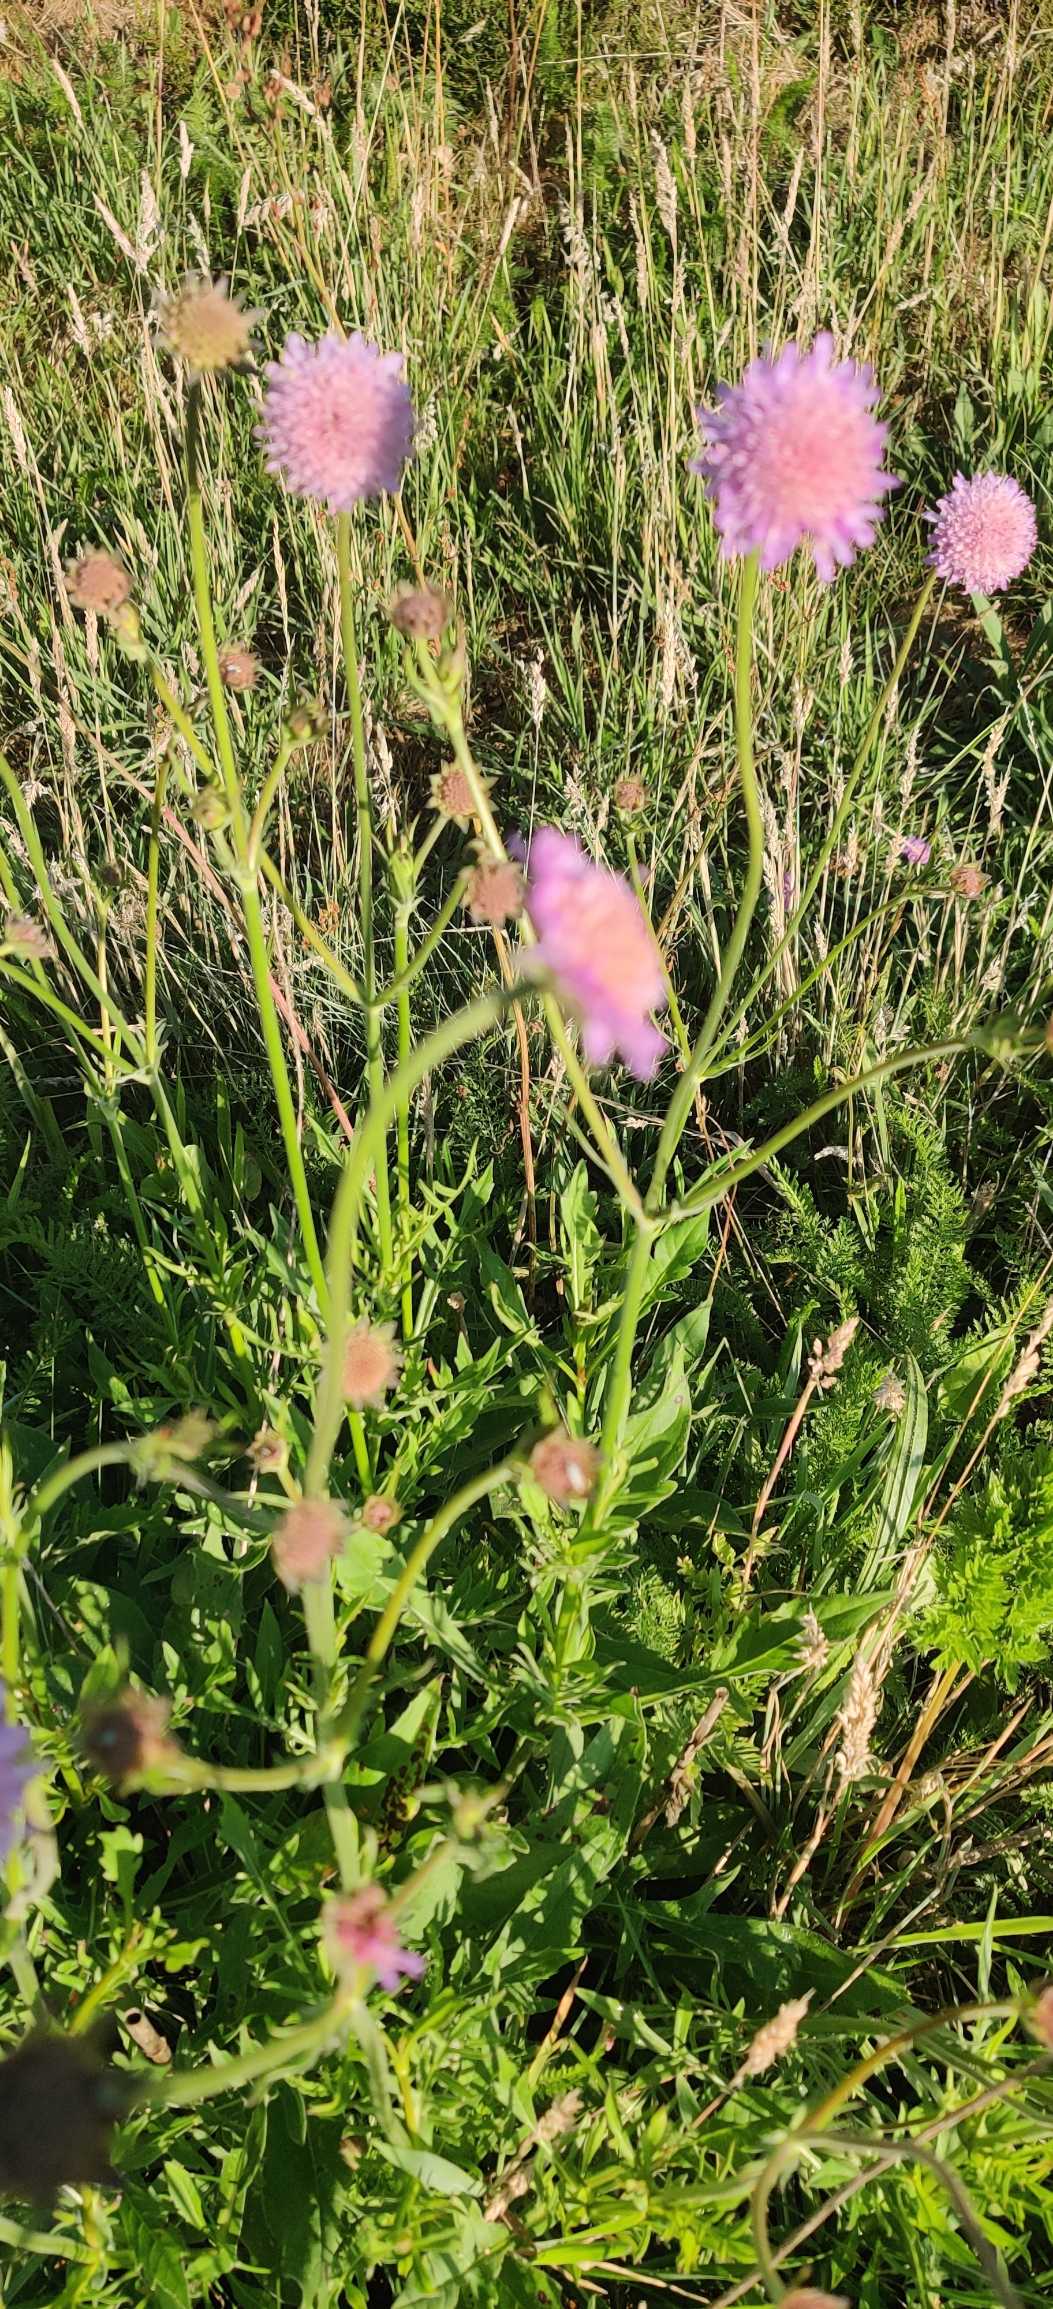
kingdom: Plantae
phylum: Tracheophyta
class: Magnoliopsida
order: Dipsacales
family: Caprifoliaceae
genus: Knautia
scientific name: Knautia arvensis
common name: Blåhat
